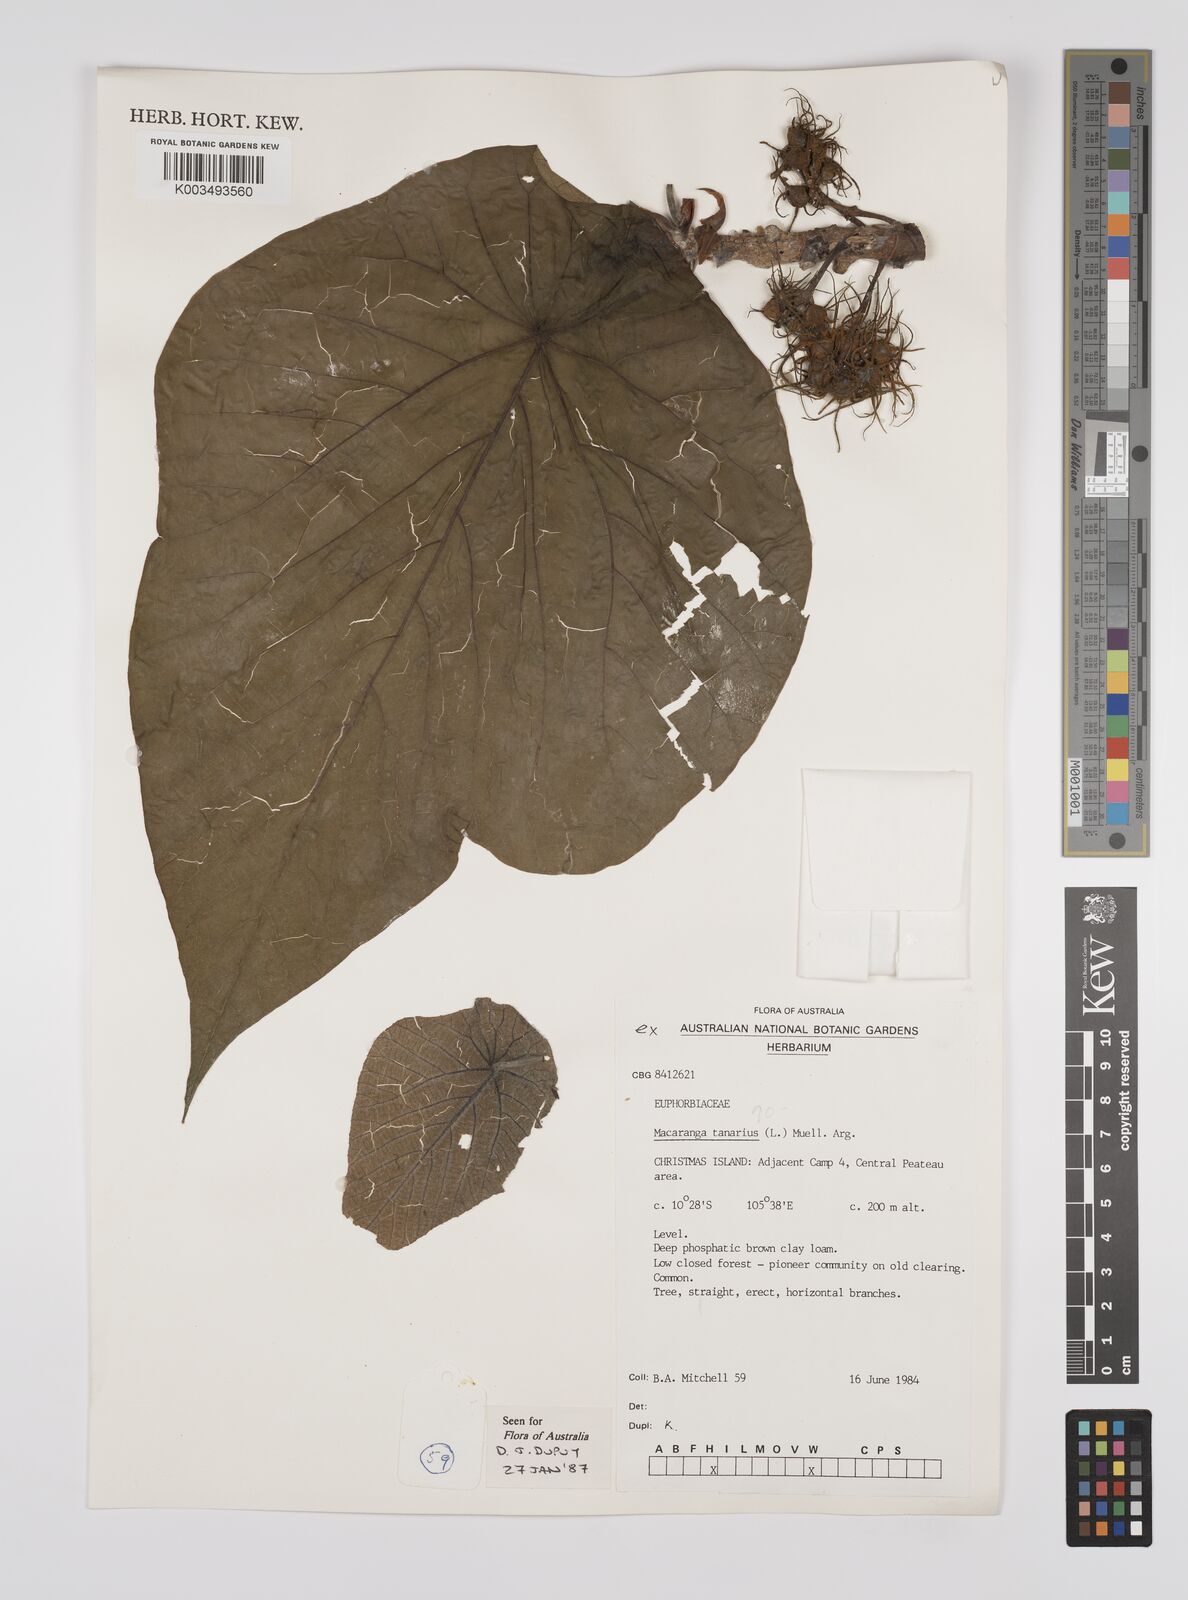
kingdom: Plantae
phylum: Tracheophyta
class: Magnoliopsida
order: Malpighiales
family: Euphorbiaceae
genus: Macaranga
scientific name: Macaranga tanarius
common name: Parasol leaf tree
